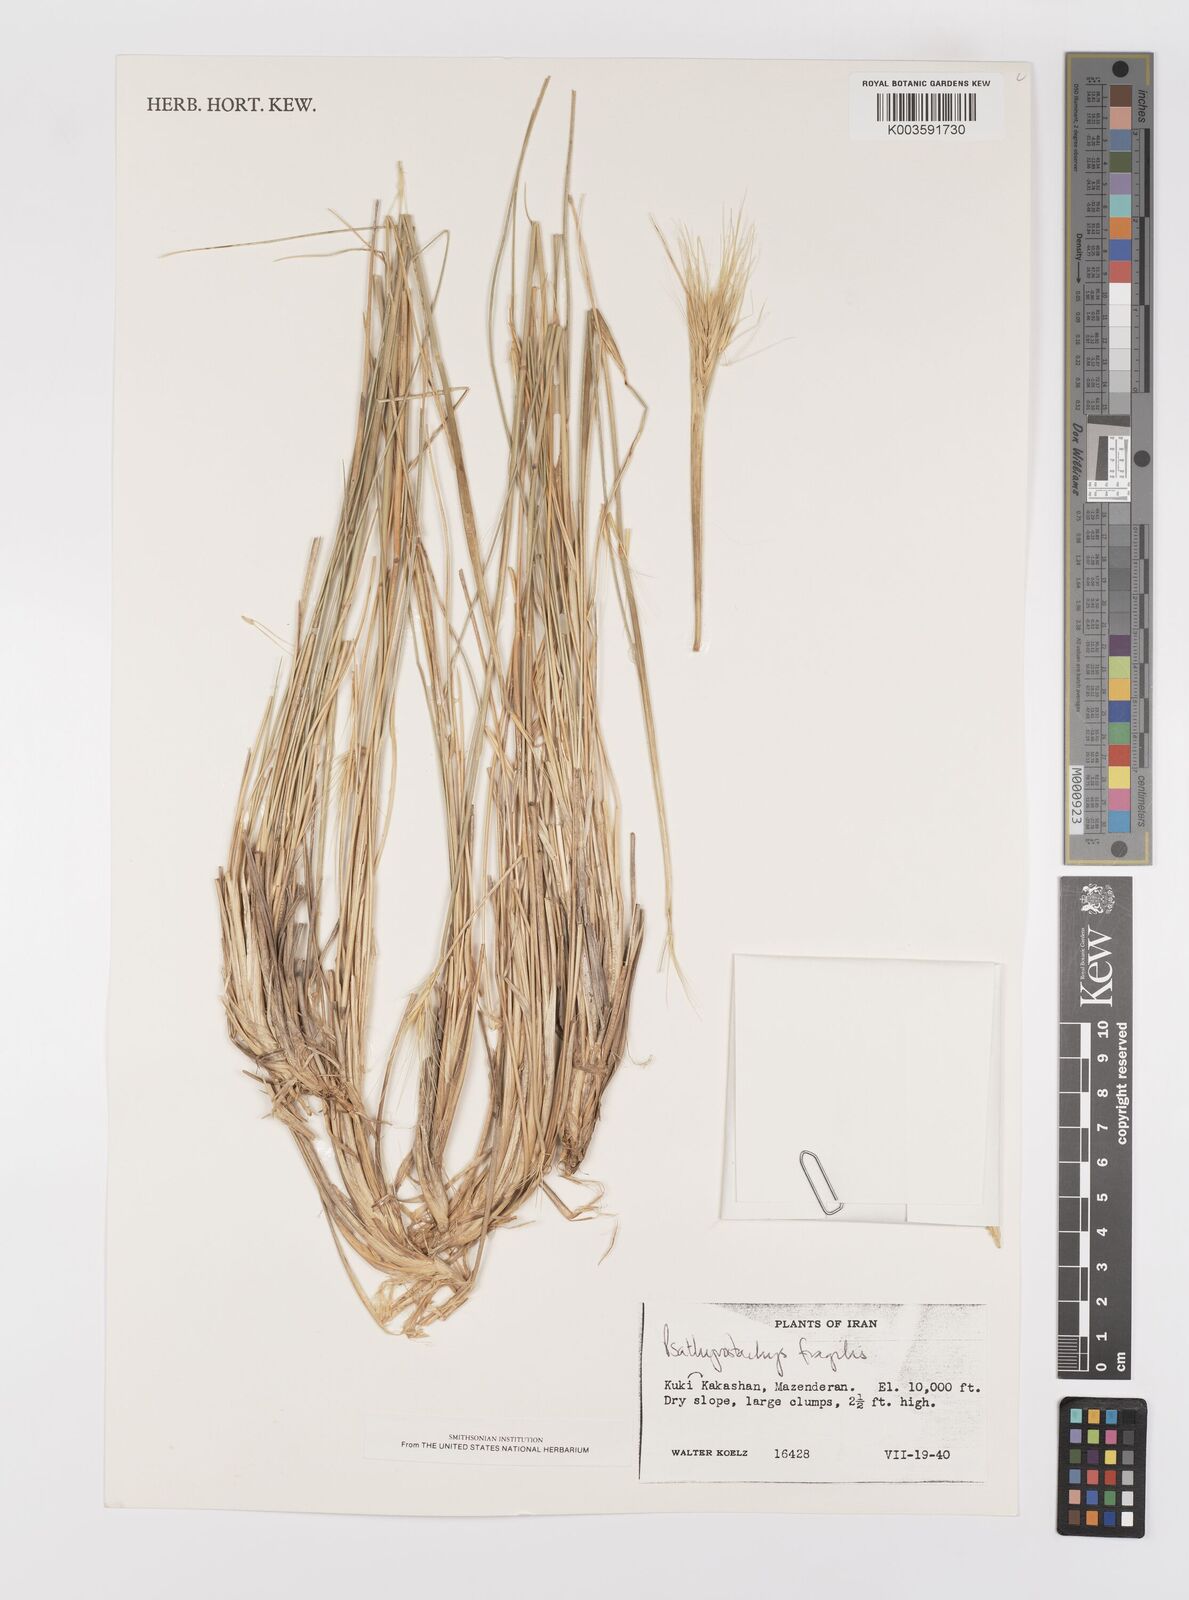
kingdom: Plantae
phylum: Tracheophyta
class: Liliopsida
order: Poales
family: Poaceae
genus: Psathyrostachys
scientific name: Psathyrostachys fragilis
